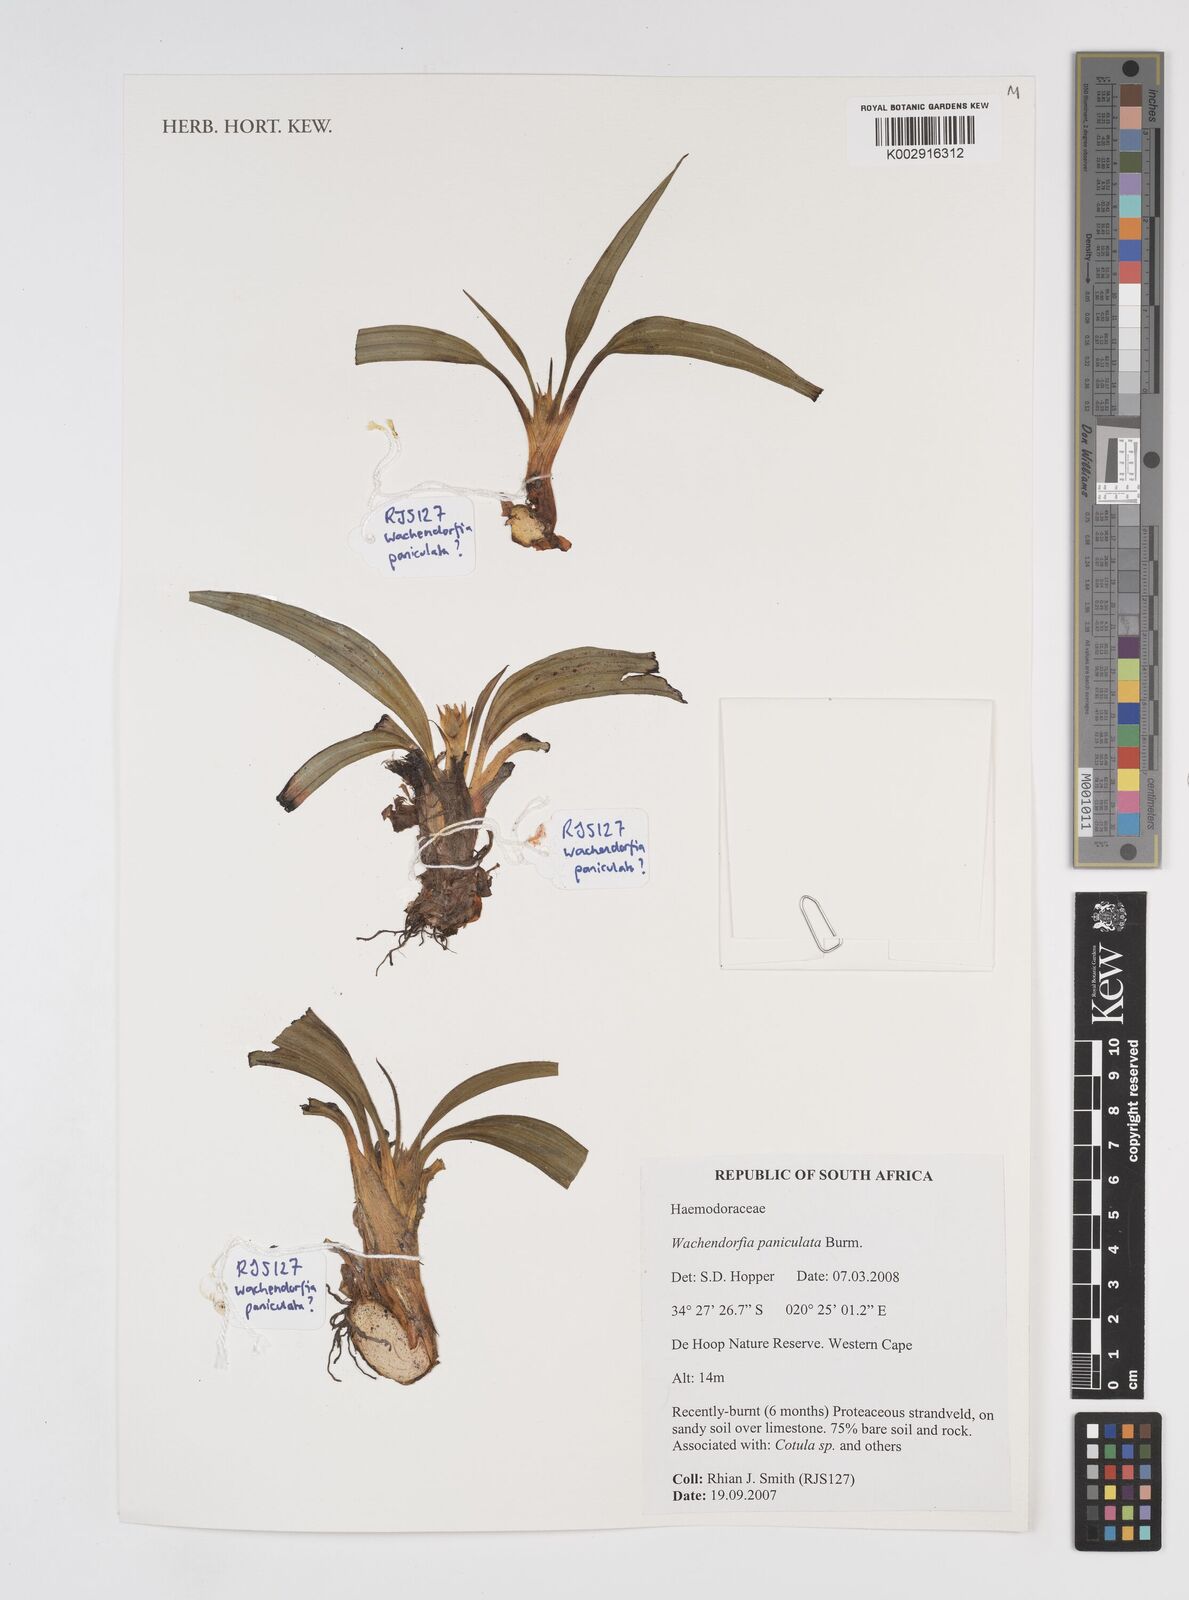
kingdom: Plantae
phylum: Tracheophyta
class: Liliopsida
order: Commelinales
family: Haemodoraceae
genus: Wachendorfia
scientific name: Wachendorfia paniculata
